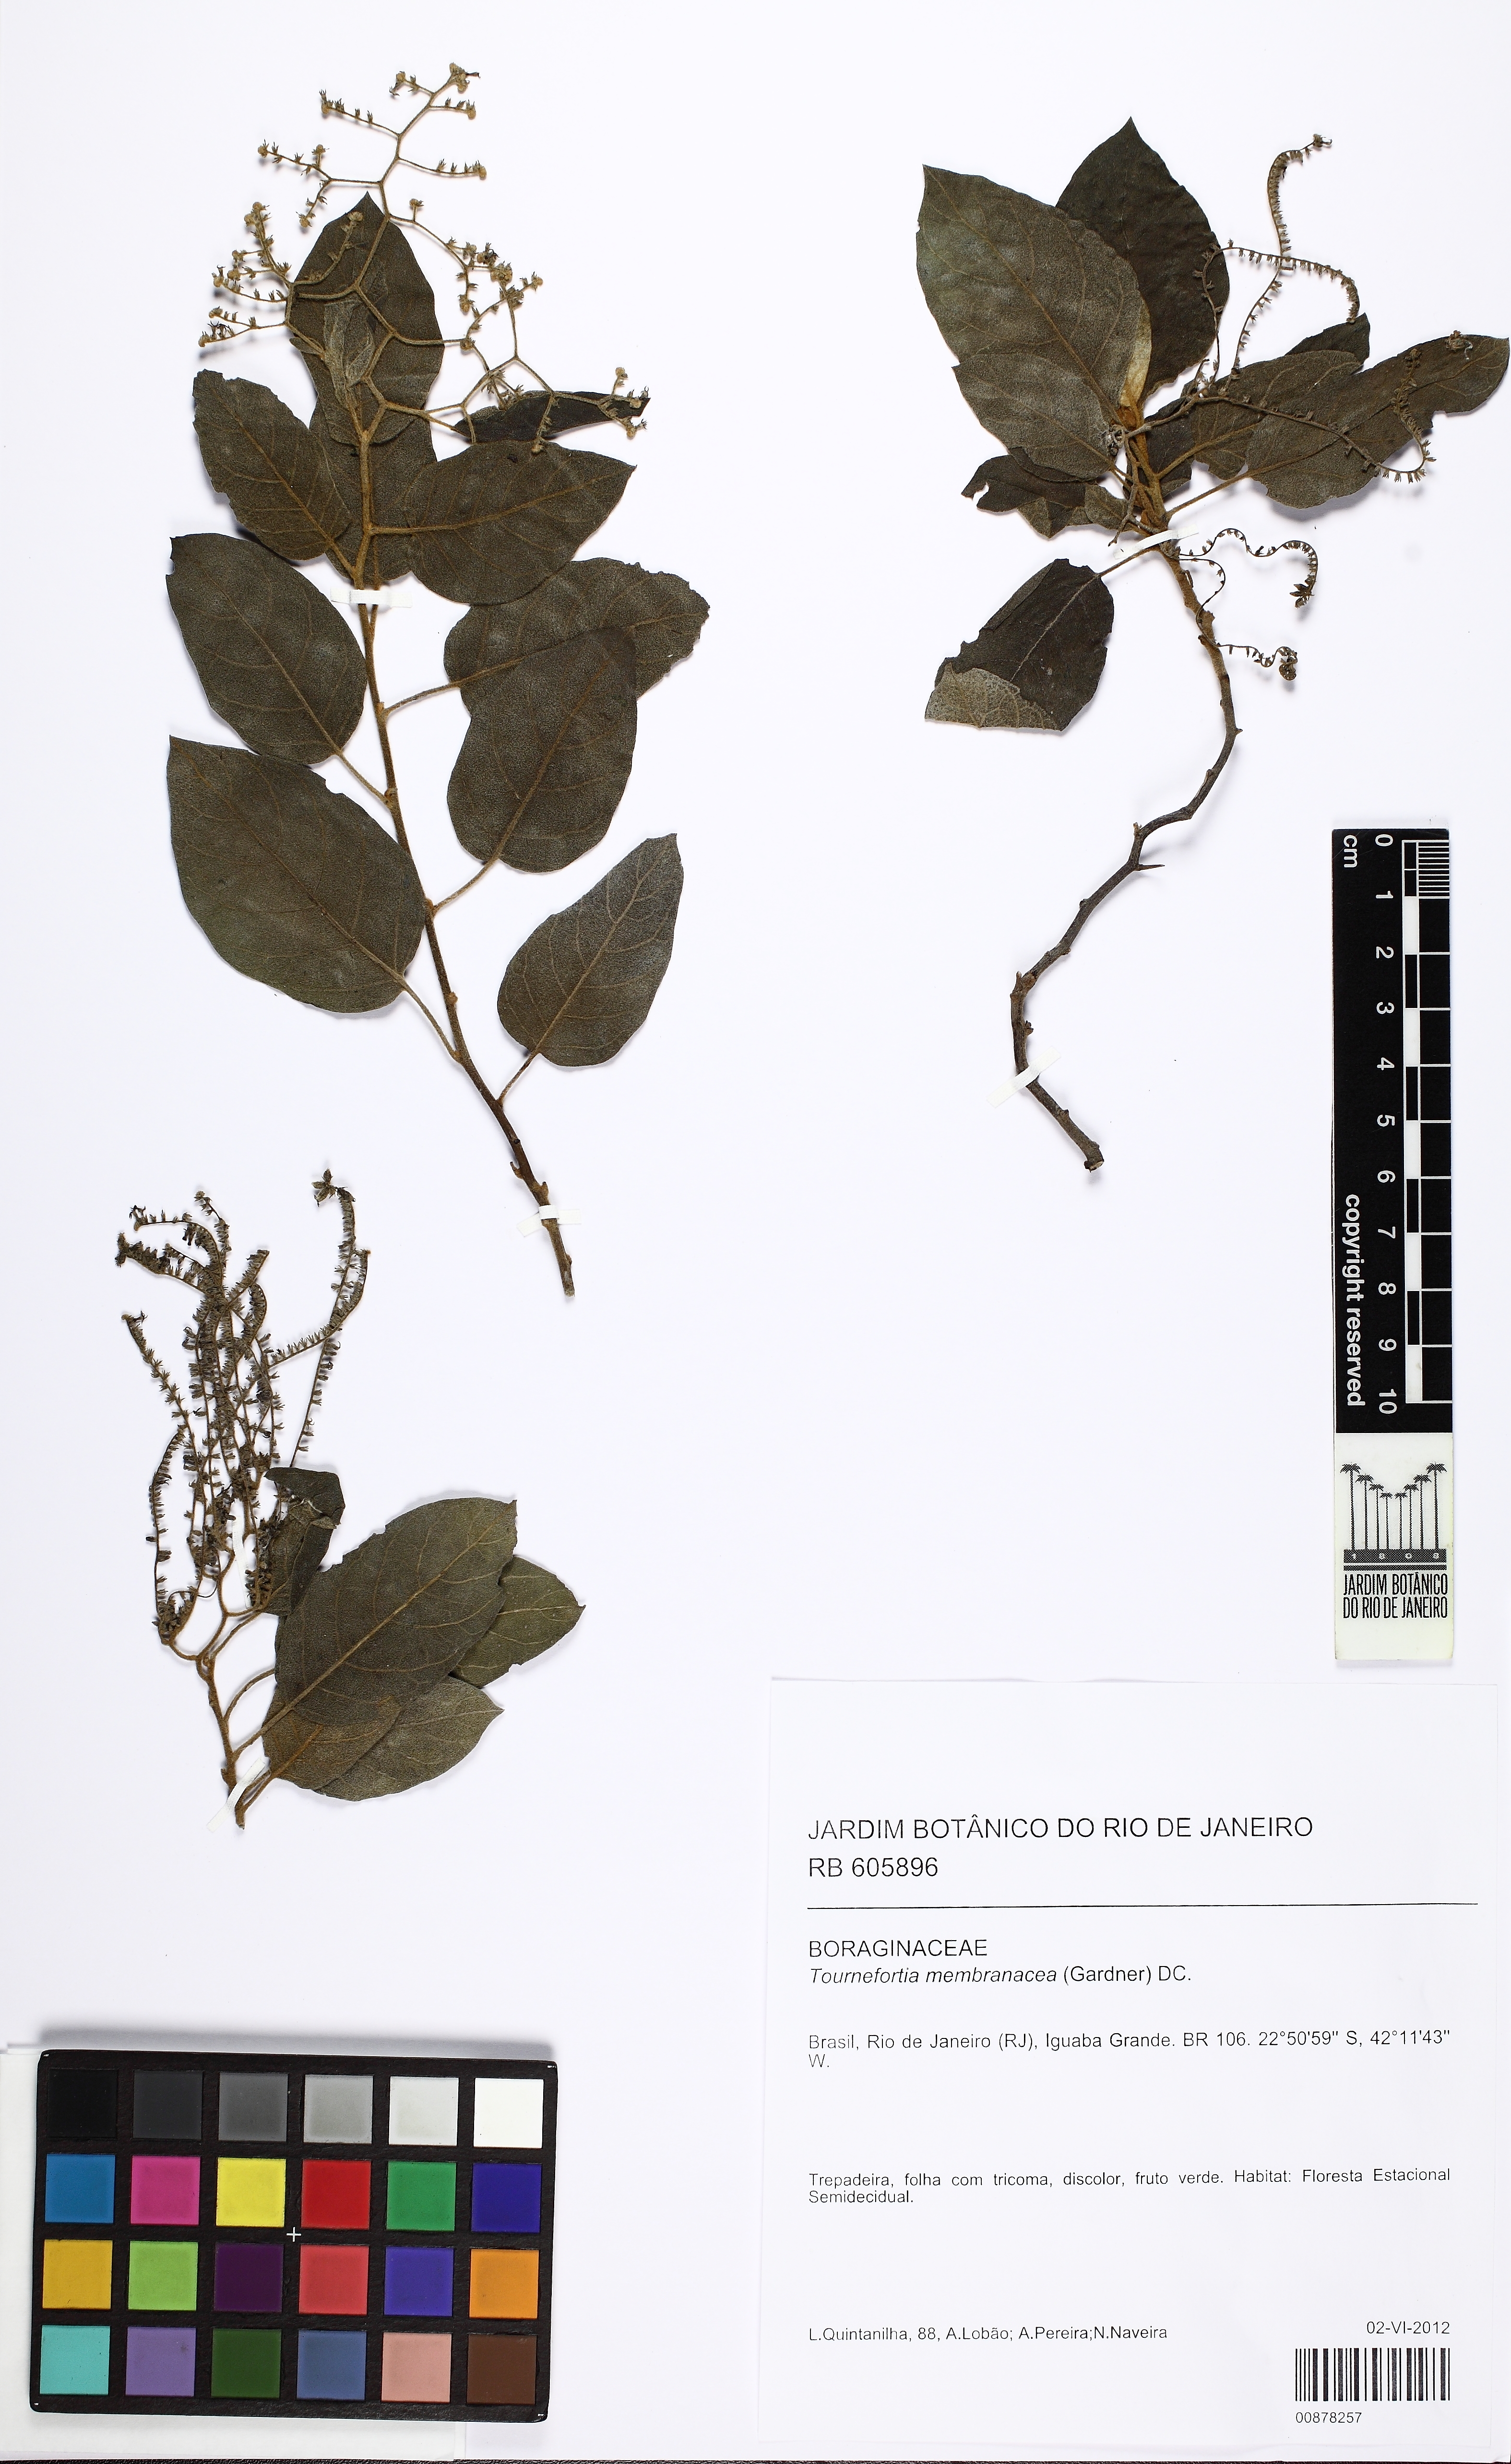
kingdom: Plantae
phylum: Tracheophyta
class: Magnoliopsida
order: Boraginales
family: Heliotropiaceae
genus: Myriopus
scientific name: Myriopus membranaceus
